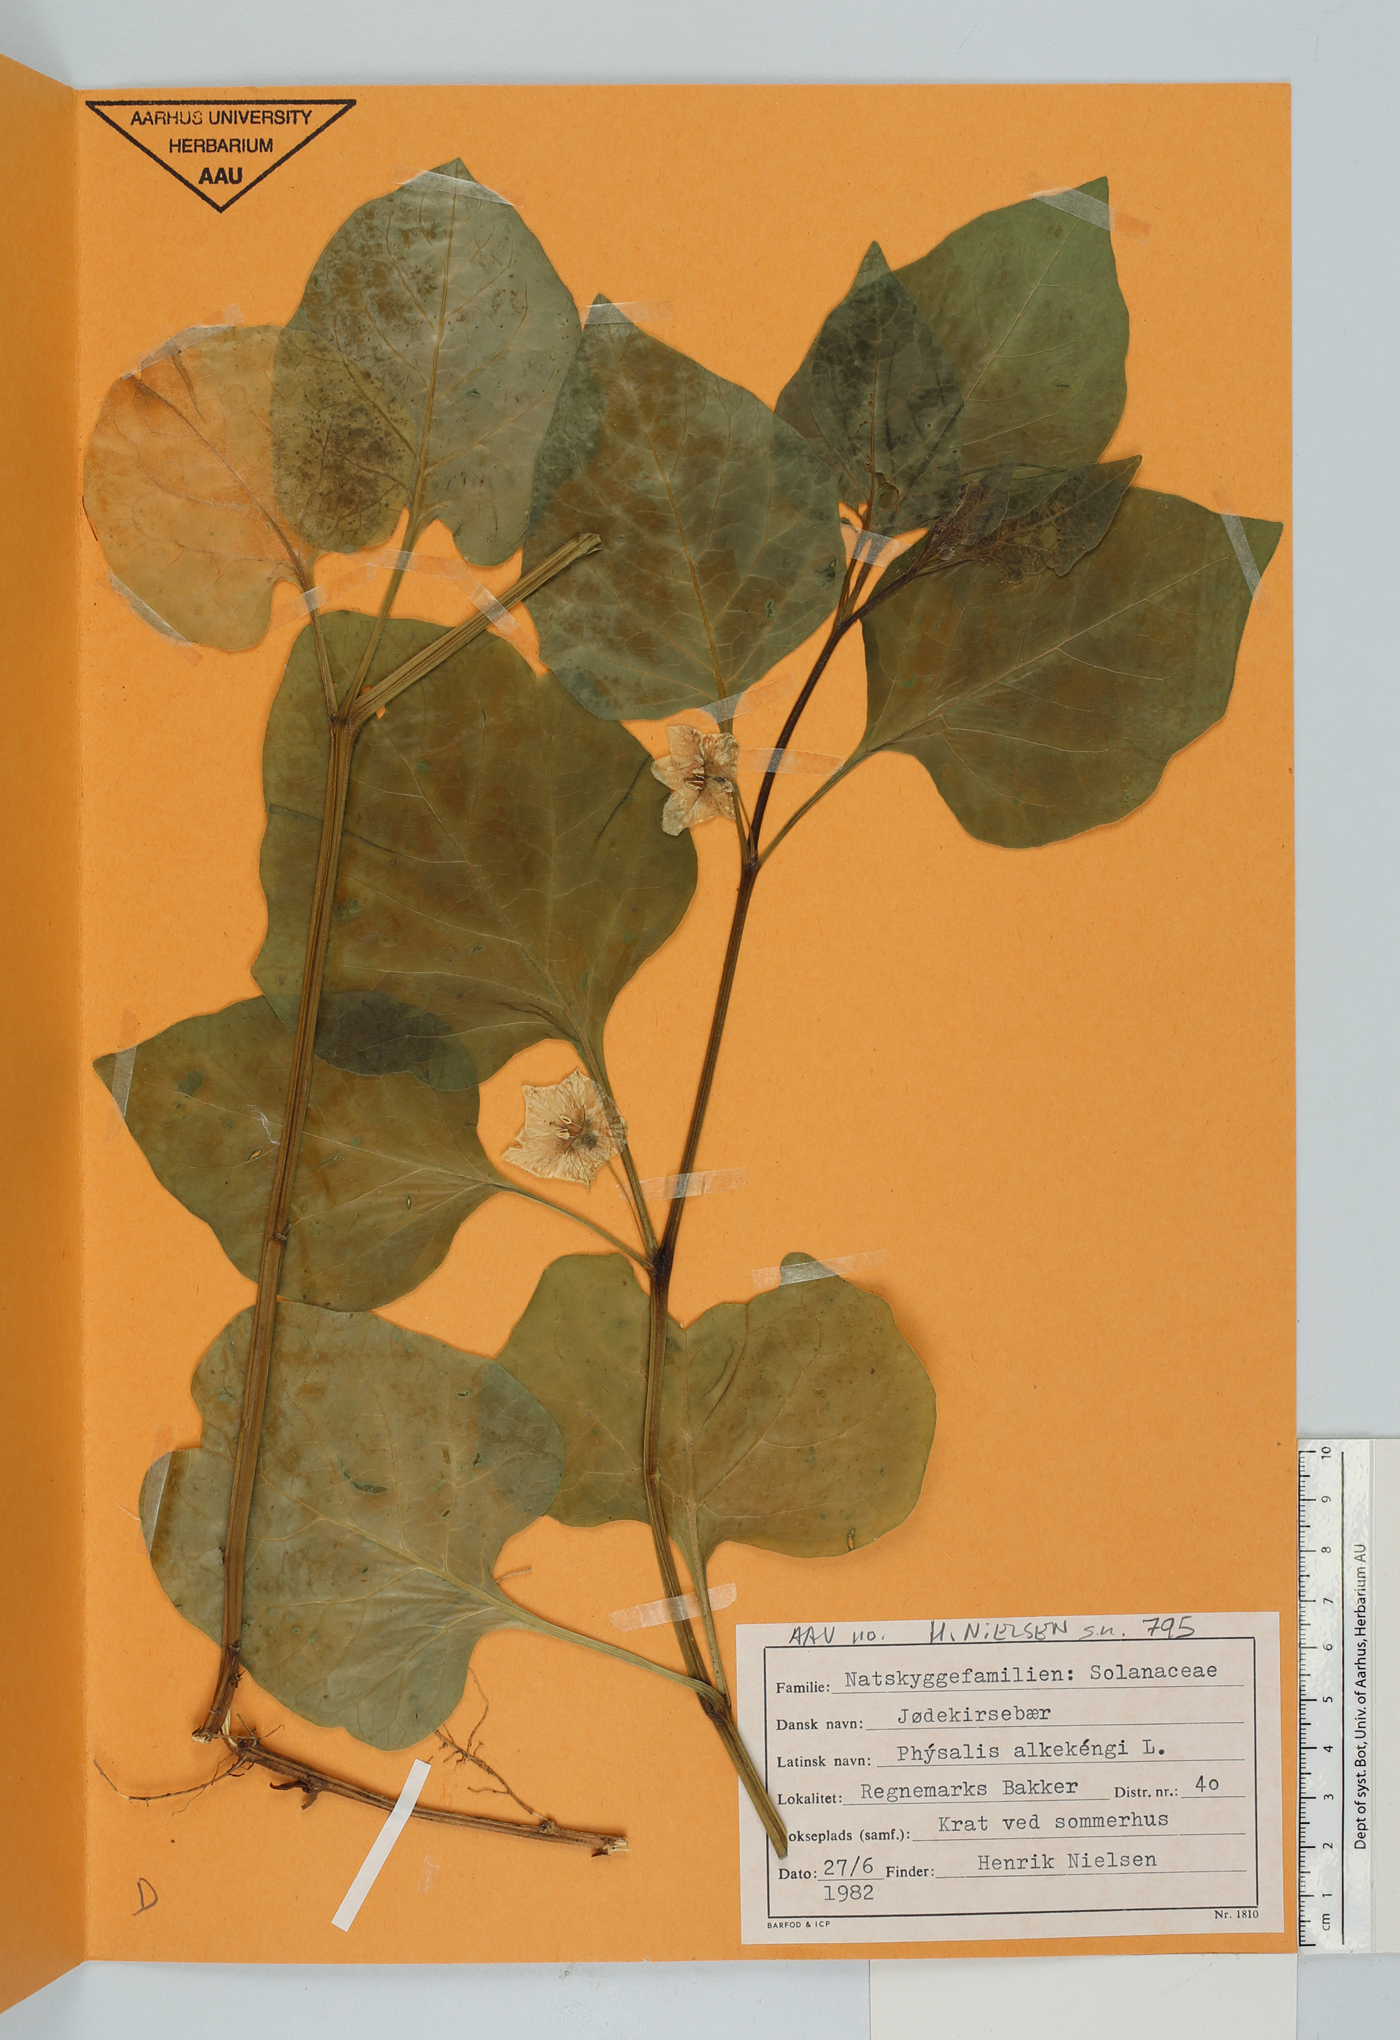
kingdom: Plantae
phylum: Tracheophyta
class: Magnoliopsida
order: Solanales
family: Solanaceae
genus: Alkekengi
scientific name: Alkekengi officinarum
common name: Japanese-lantern
